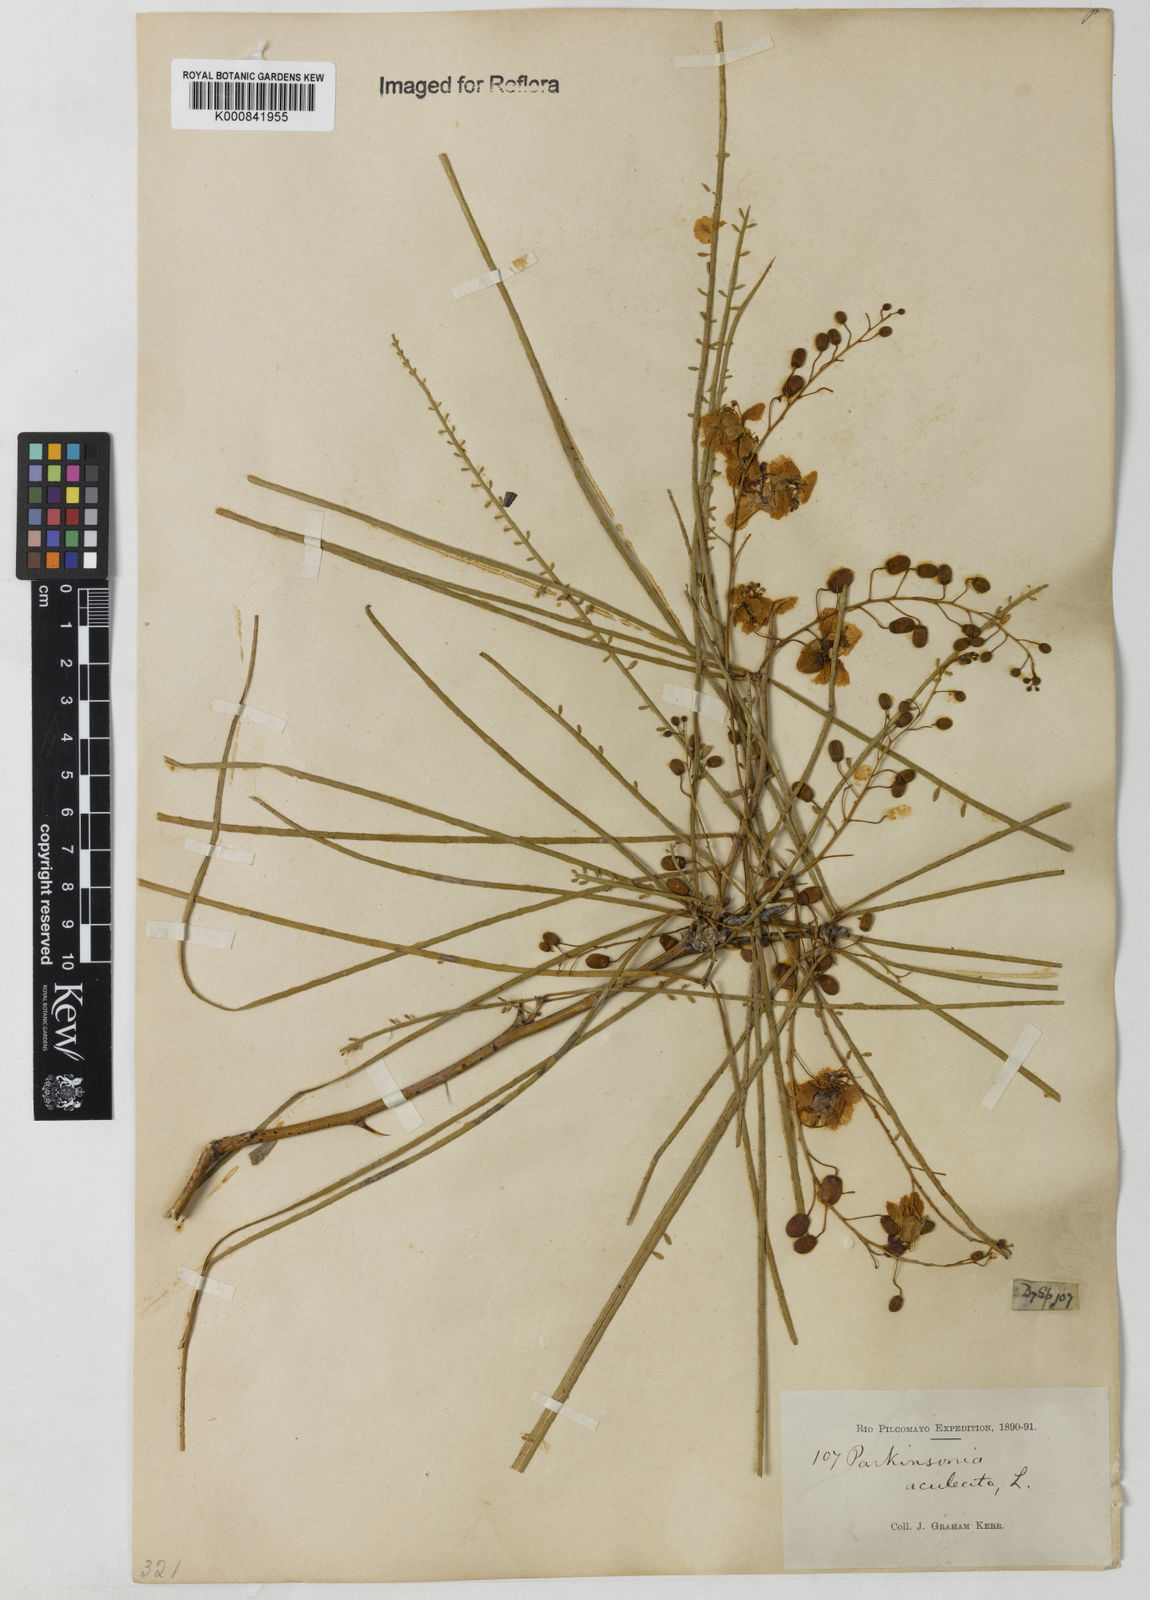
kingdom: Plantae
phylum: Tracheophyta
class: Magnoliopsida
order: Fabales
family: Fabaceae
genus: Parkinsonia
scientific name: Parkinsonia aculeata
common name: Jerusalem thorn
